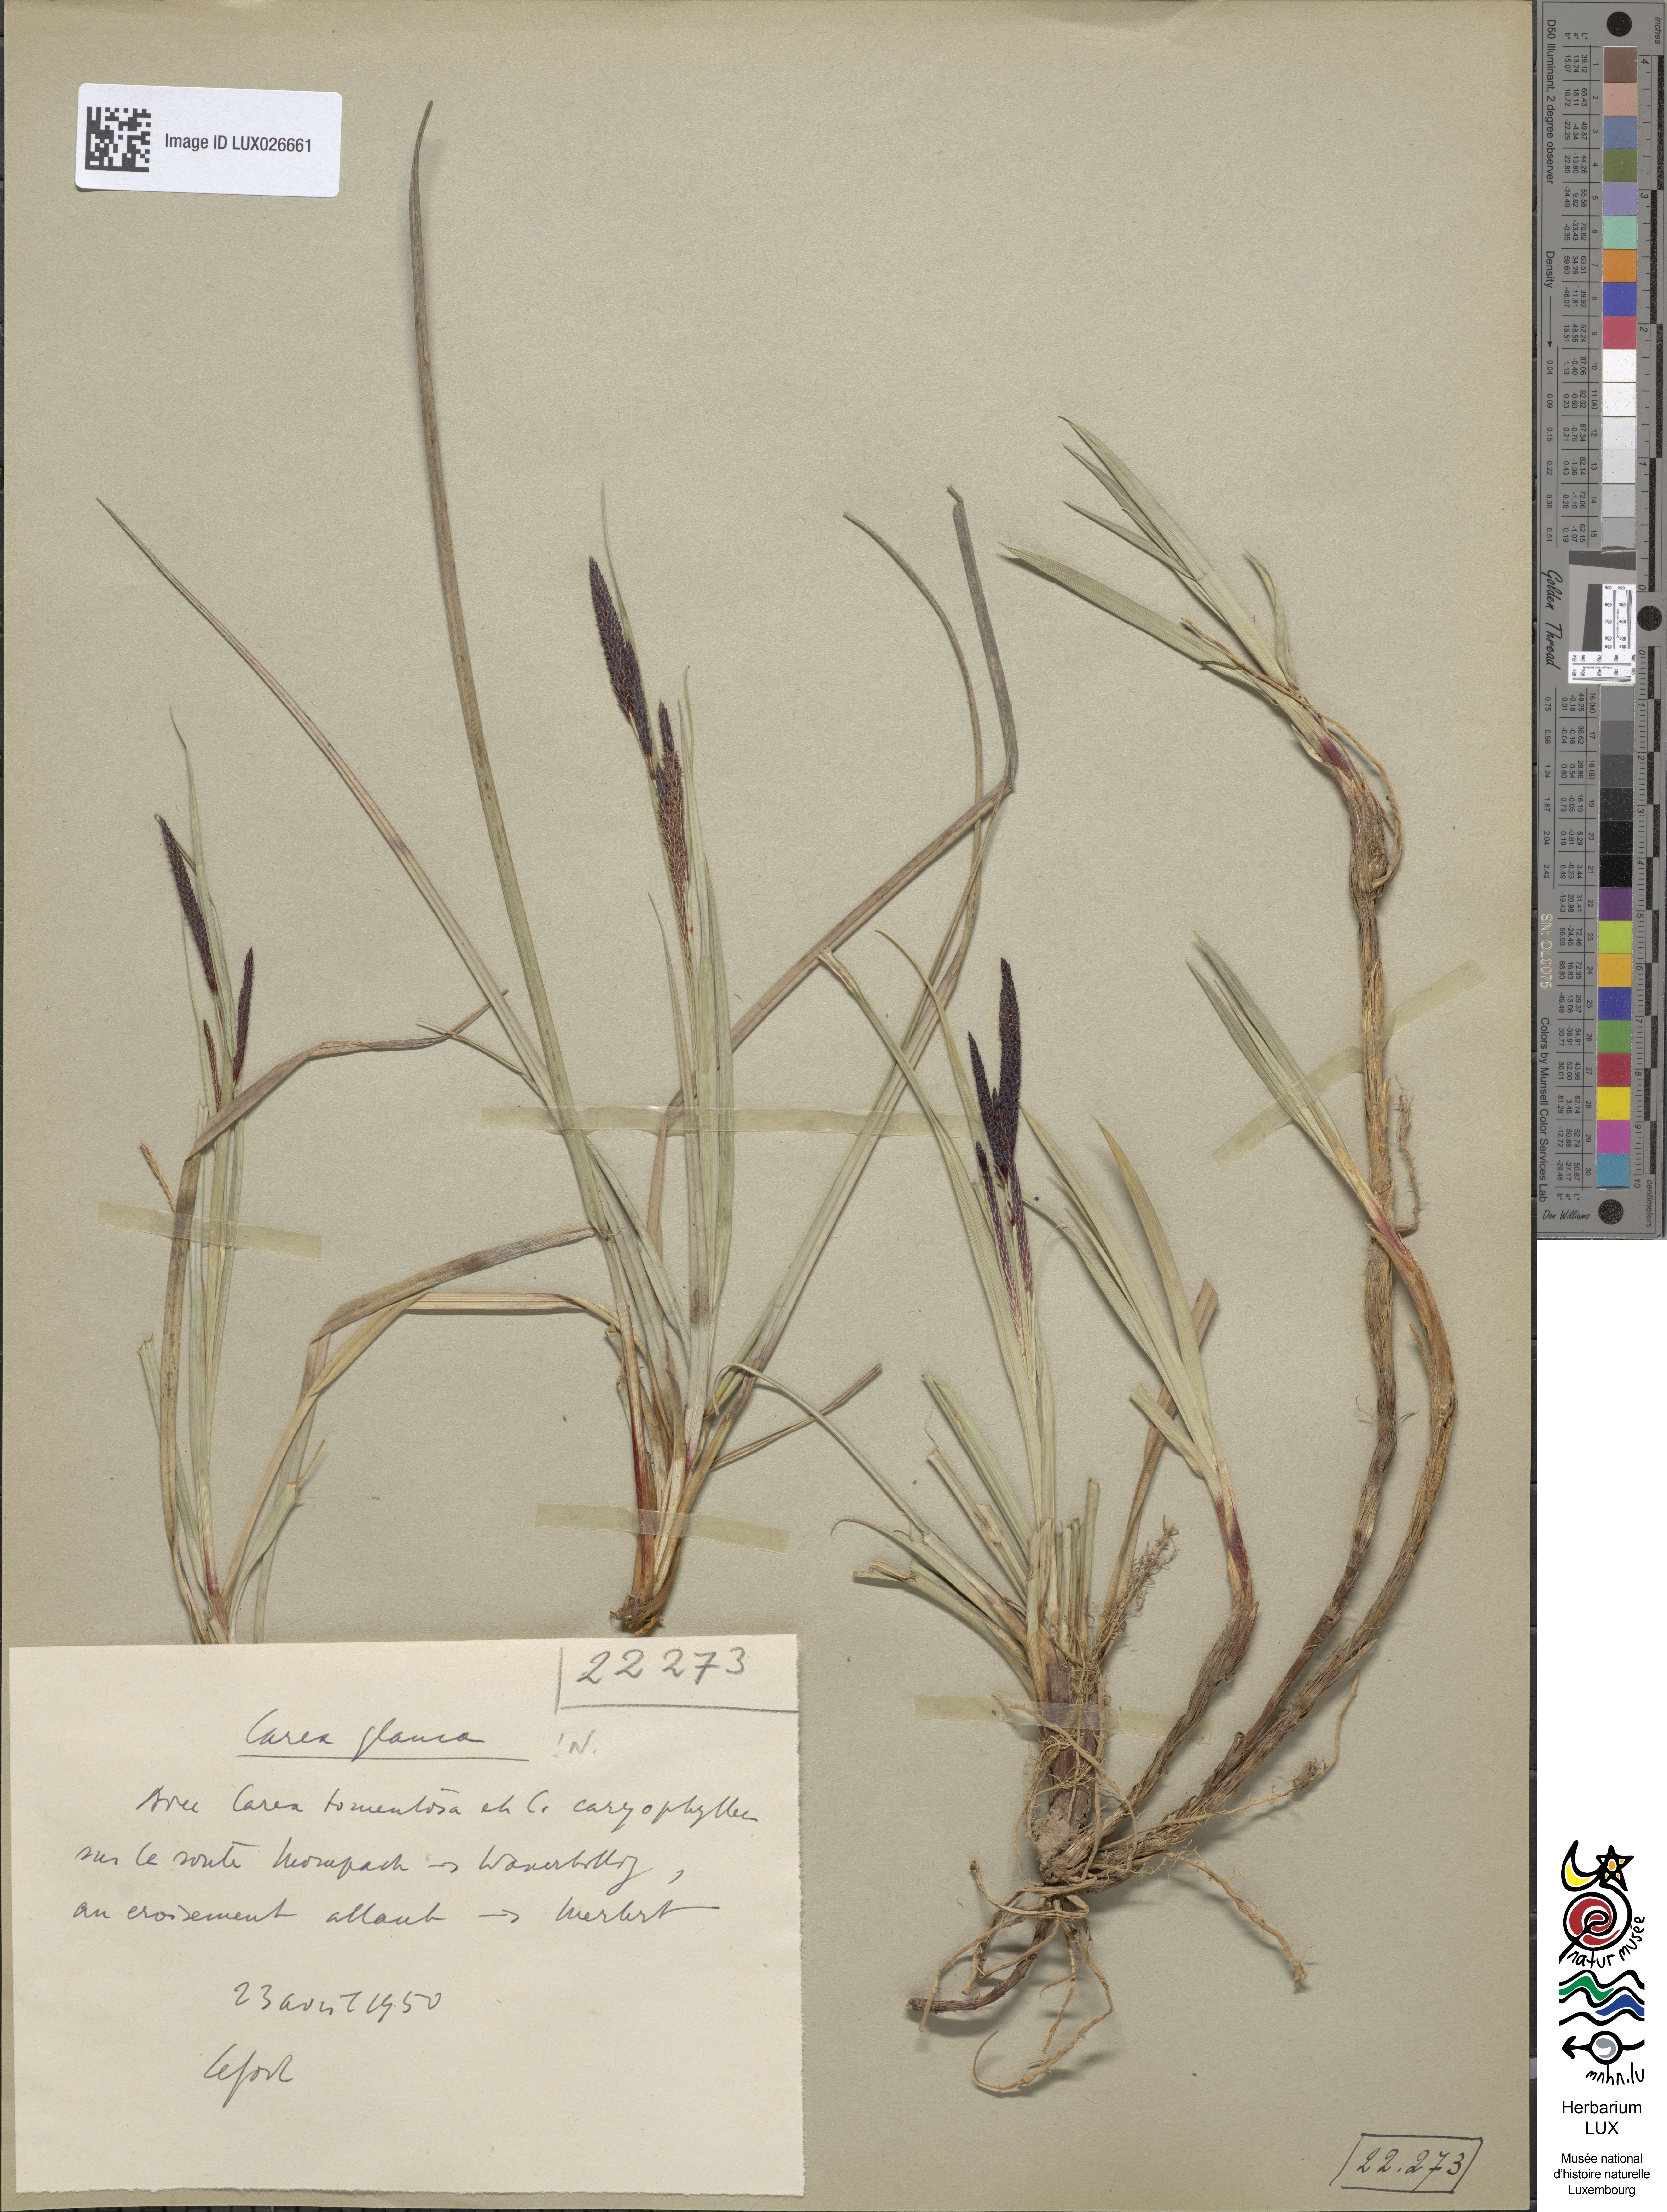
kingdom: Plantae
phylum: Tracheophyta
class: Liliopsida
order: Poales
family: Cyperaceae
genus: Carex
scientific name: Carex flacca
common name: Glaucous sedge
